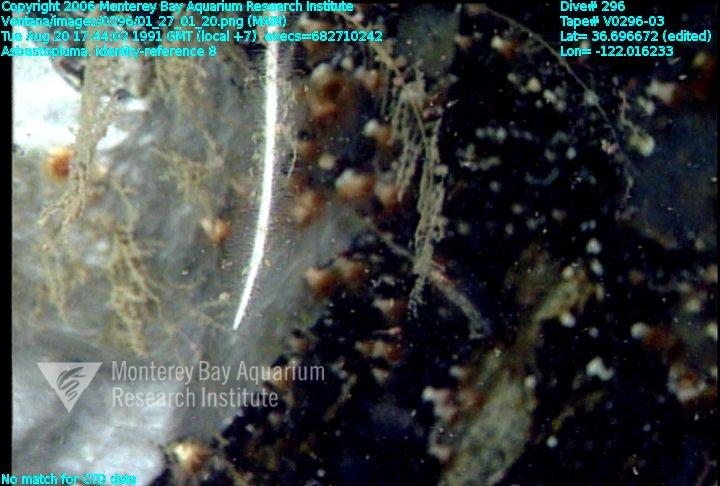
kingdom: Animalia
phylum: Porifera
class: Demospongiae
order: Poecilosclerida
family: Cladorhizidae
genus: Asbestopluma
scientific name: Asbestopluma
